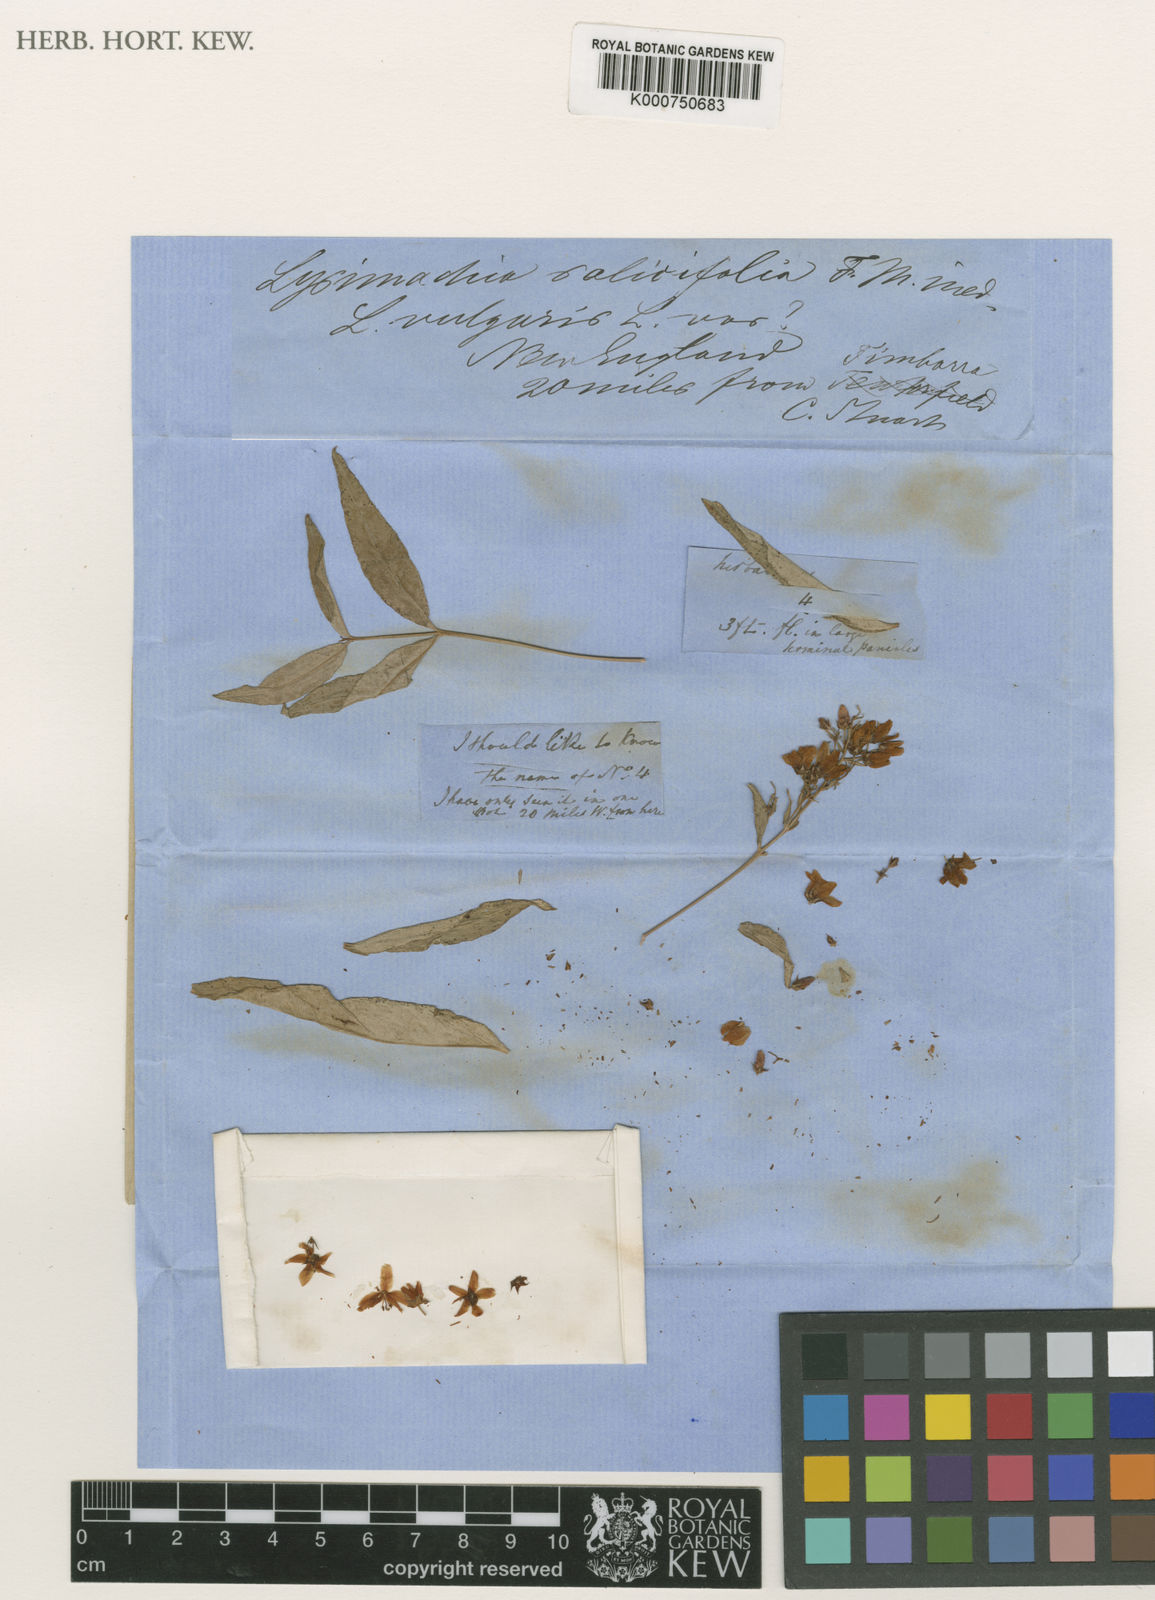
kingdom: Plantae
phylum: Tracheophyta
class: Magnoliopsida
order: Ericales
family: Primulaceae
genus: Lysimachia
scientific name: Lysimachia salicifolia
